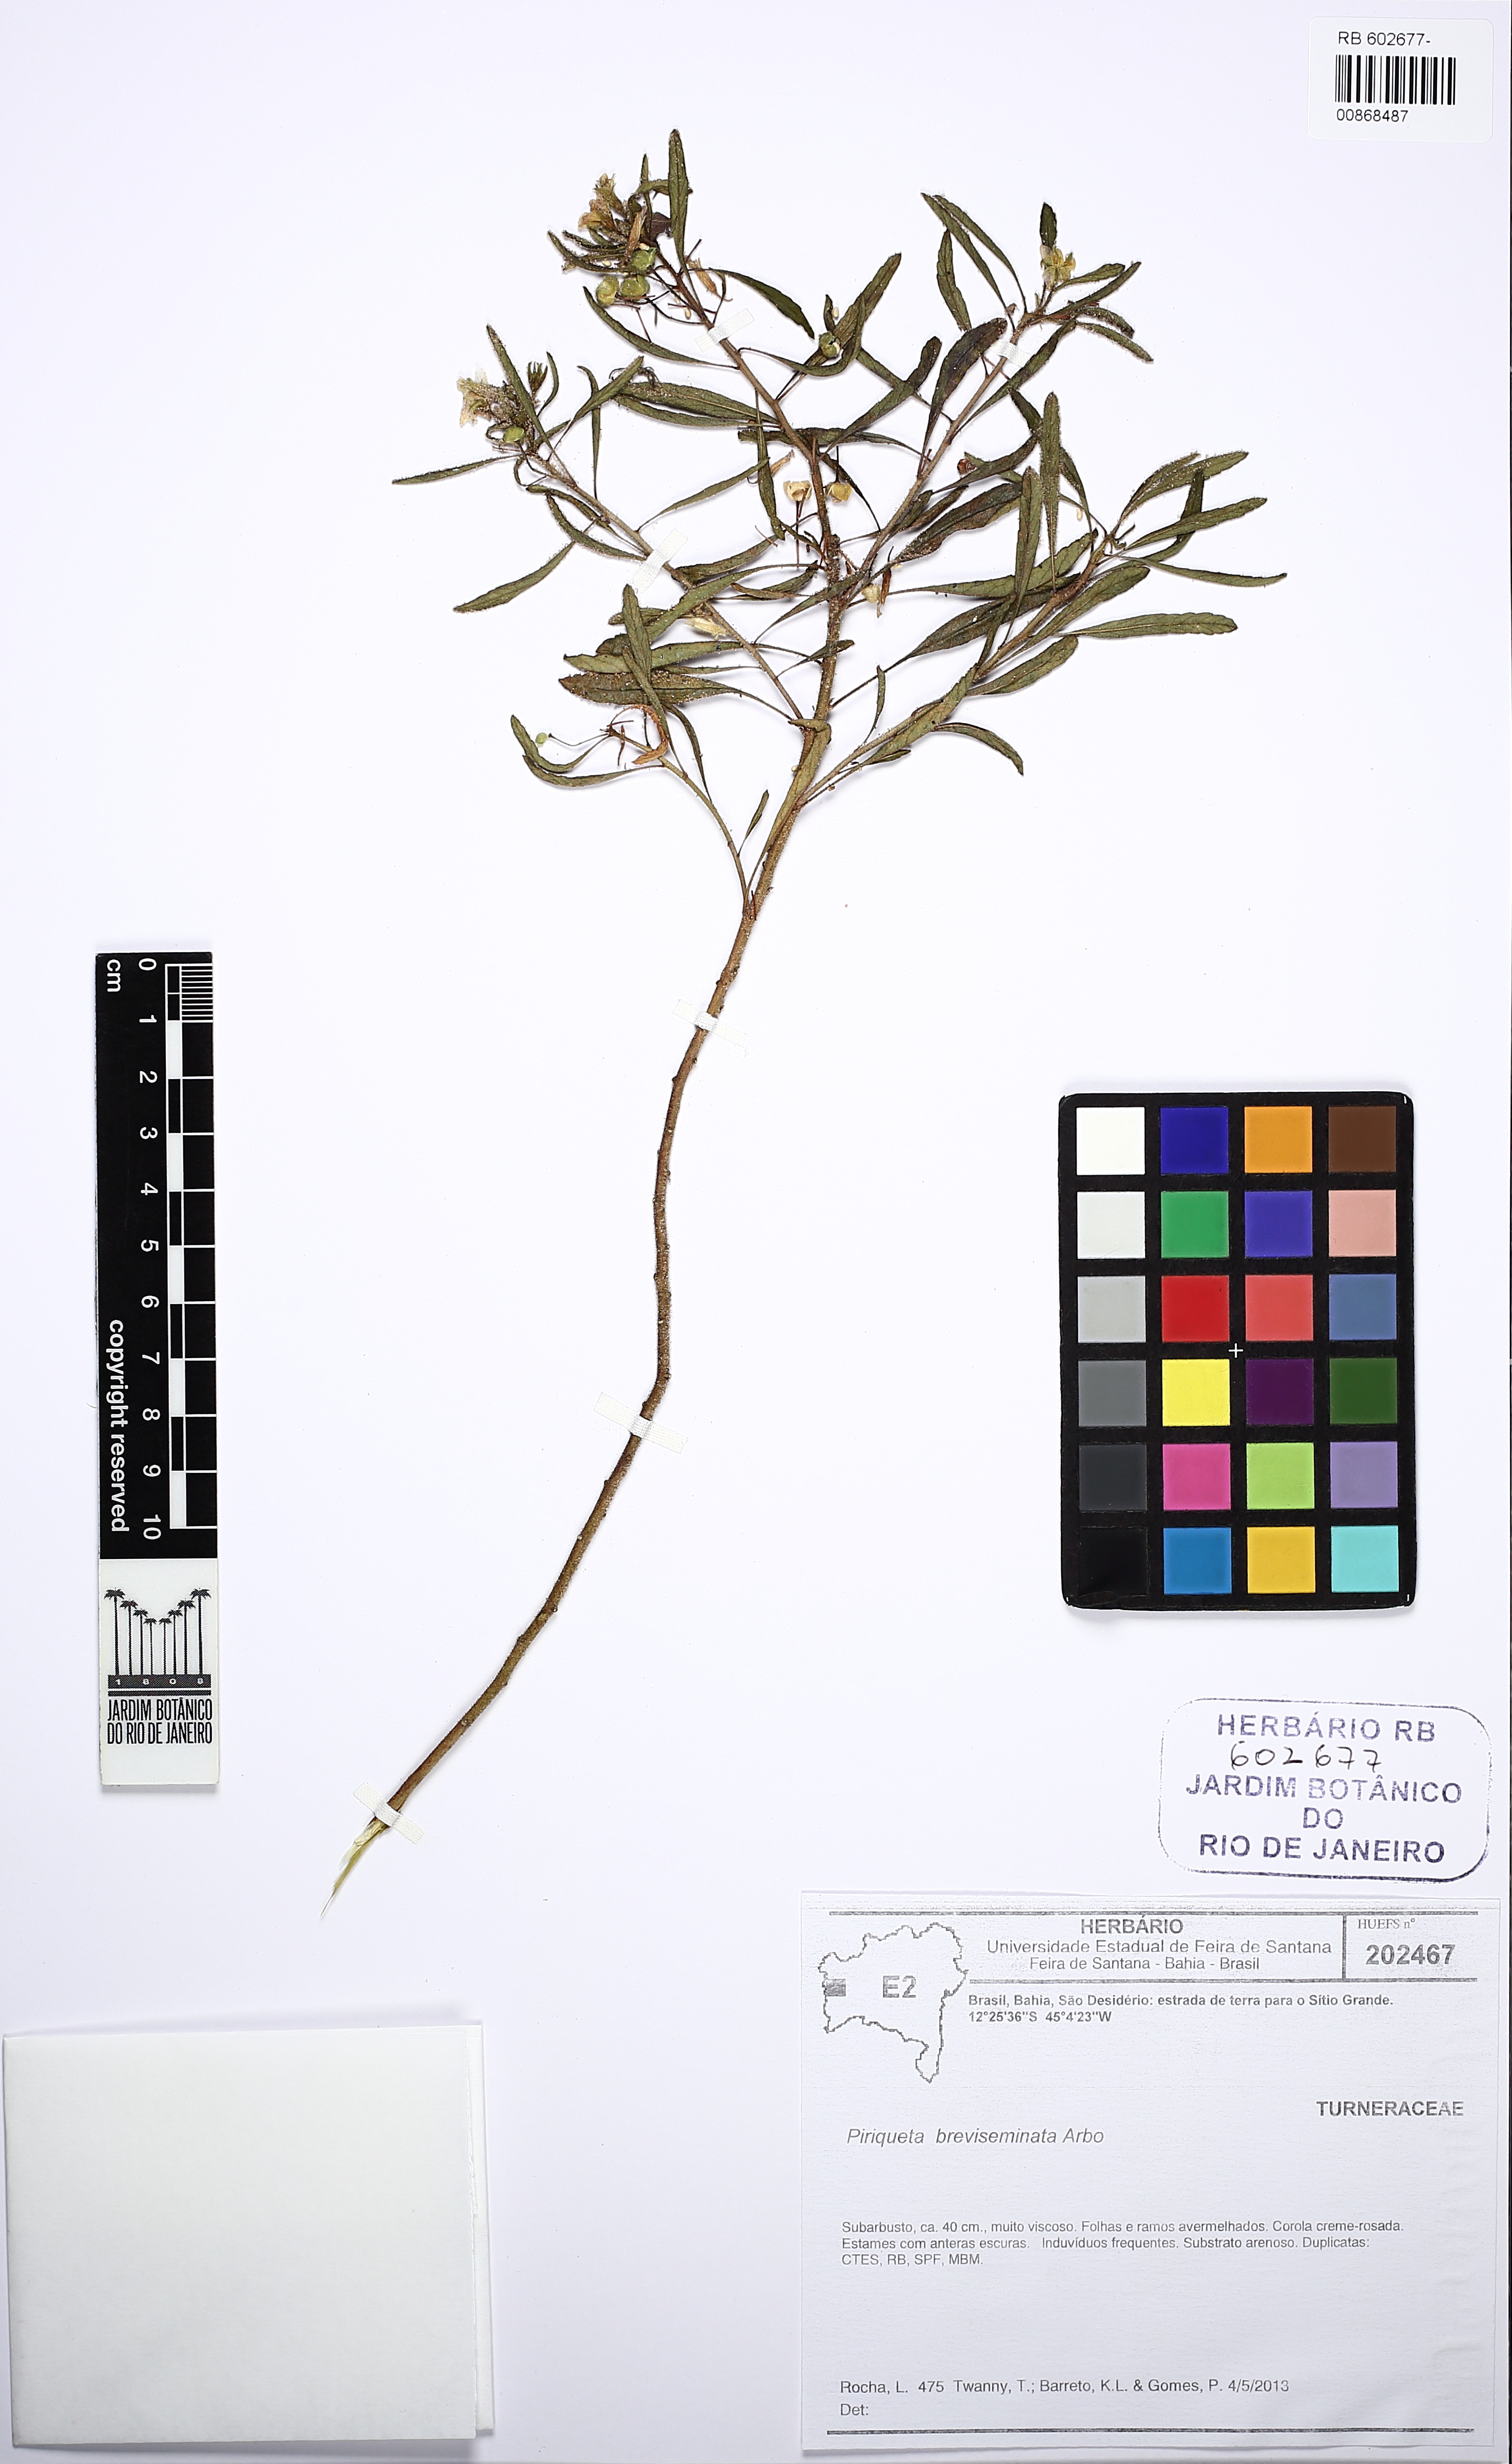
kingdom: Plantae
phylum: Tracheophyta
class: Magnoliopsida
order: Malpighiales
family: Turneraceae
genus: Piriqueta
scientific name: Piriqueta breviseminata
